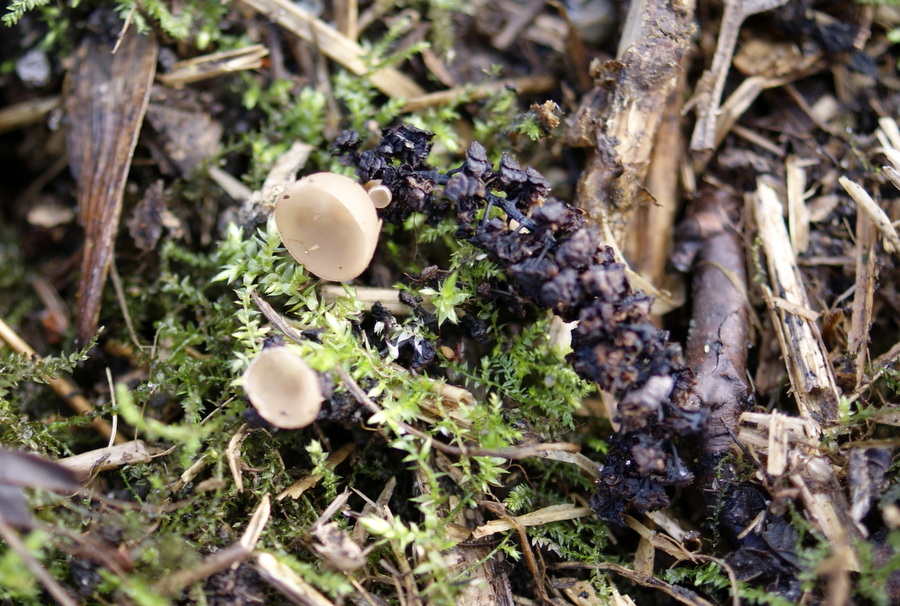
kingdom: Fungi
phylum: Ascomycota
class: Leotiomycetes
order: Helotiales
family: Sclerotiniaceae
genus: Ciboria
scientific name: Ciboria amentacea
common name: ellerakle-knoldskive
